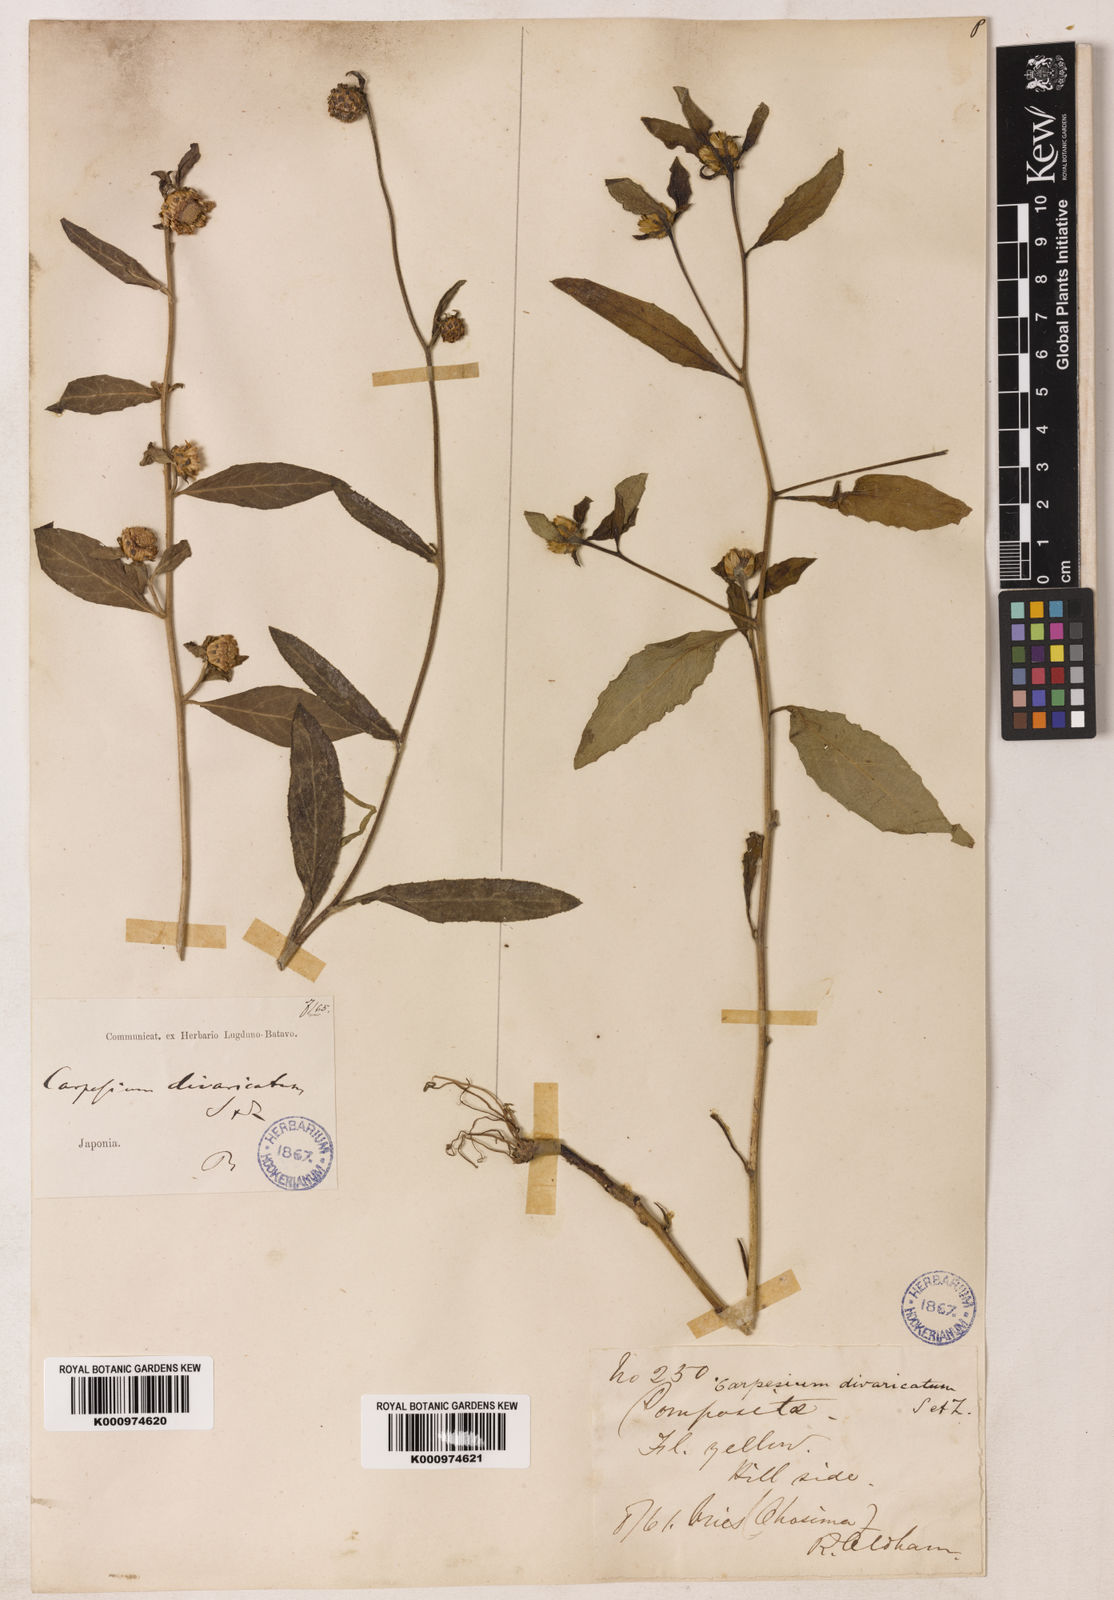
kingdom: Plantae
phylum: Tracheophyta
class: Magnoliopsida
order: Asterales
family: Asteraceae
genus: Carpesium
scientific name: Carpesium divaricatum
